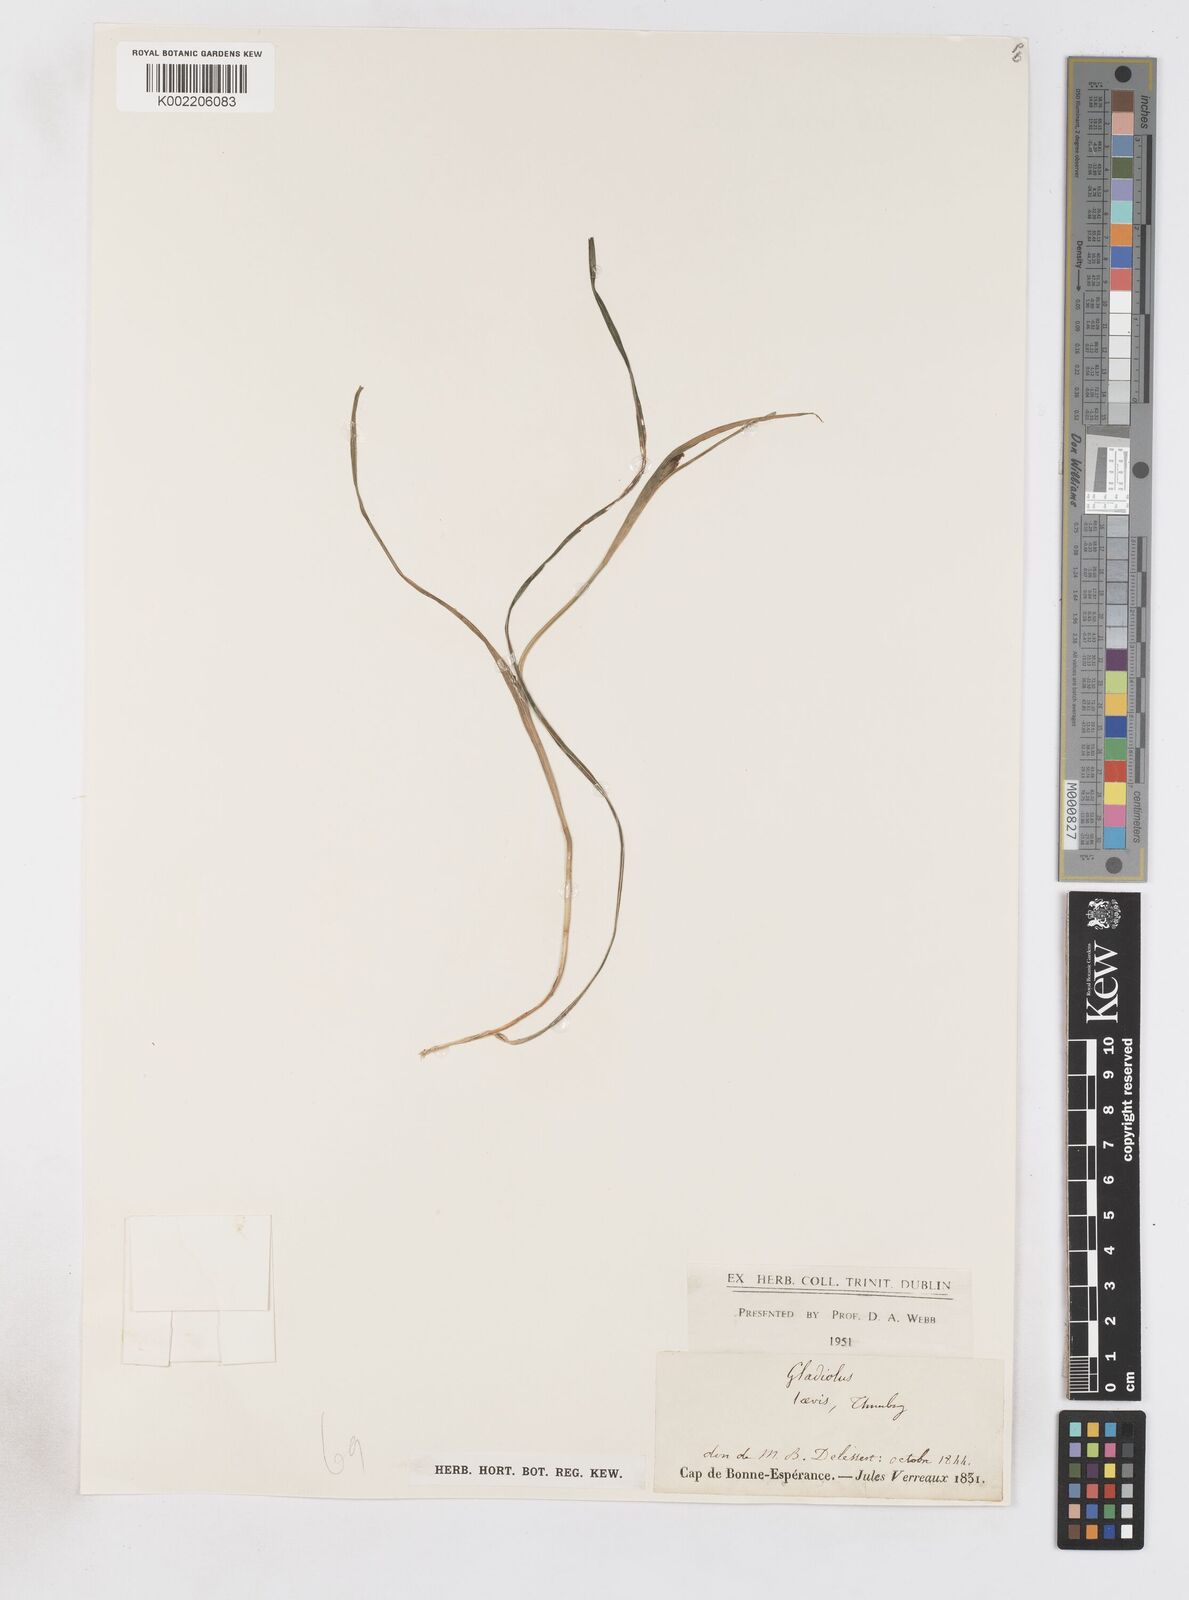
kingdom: Plantae
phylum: Tracheophyta
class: Liliopsida
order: Asparagales
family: Iridaceae
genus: Gladiolus
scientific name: Gladiolus carinatus
